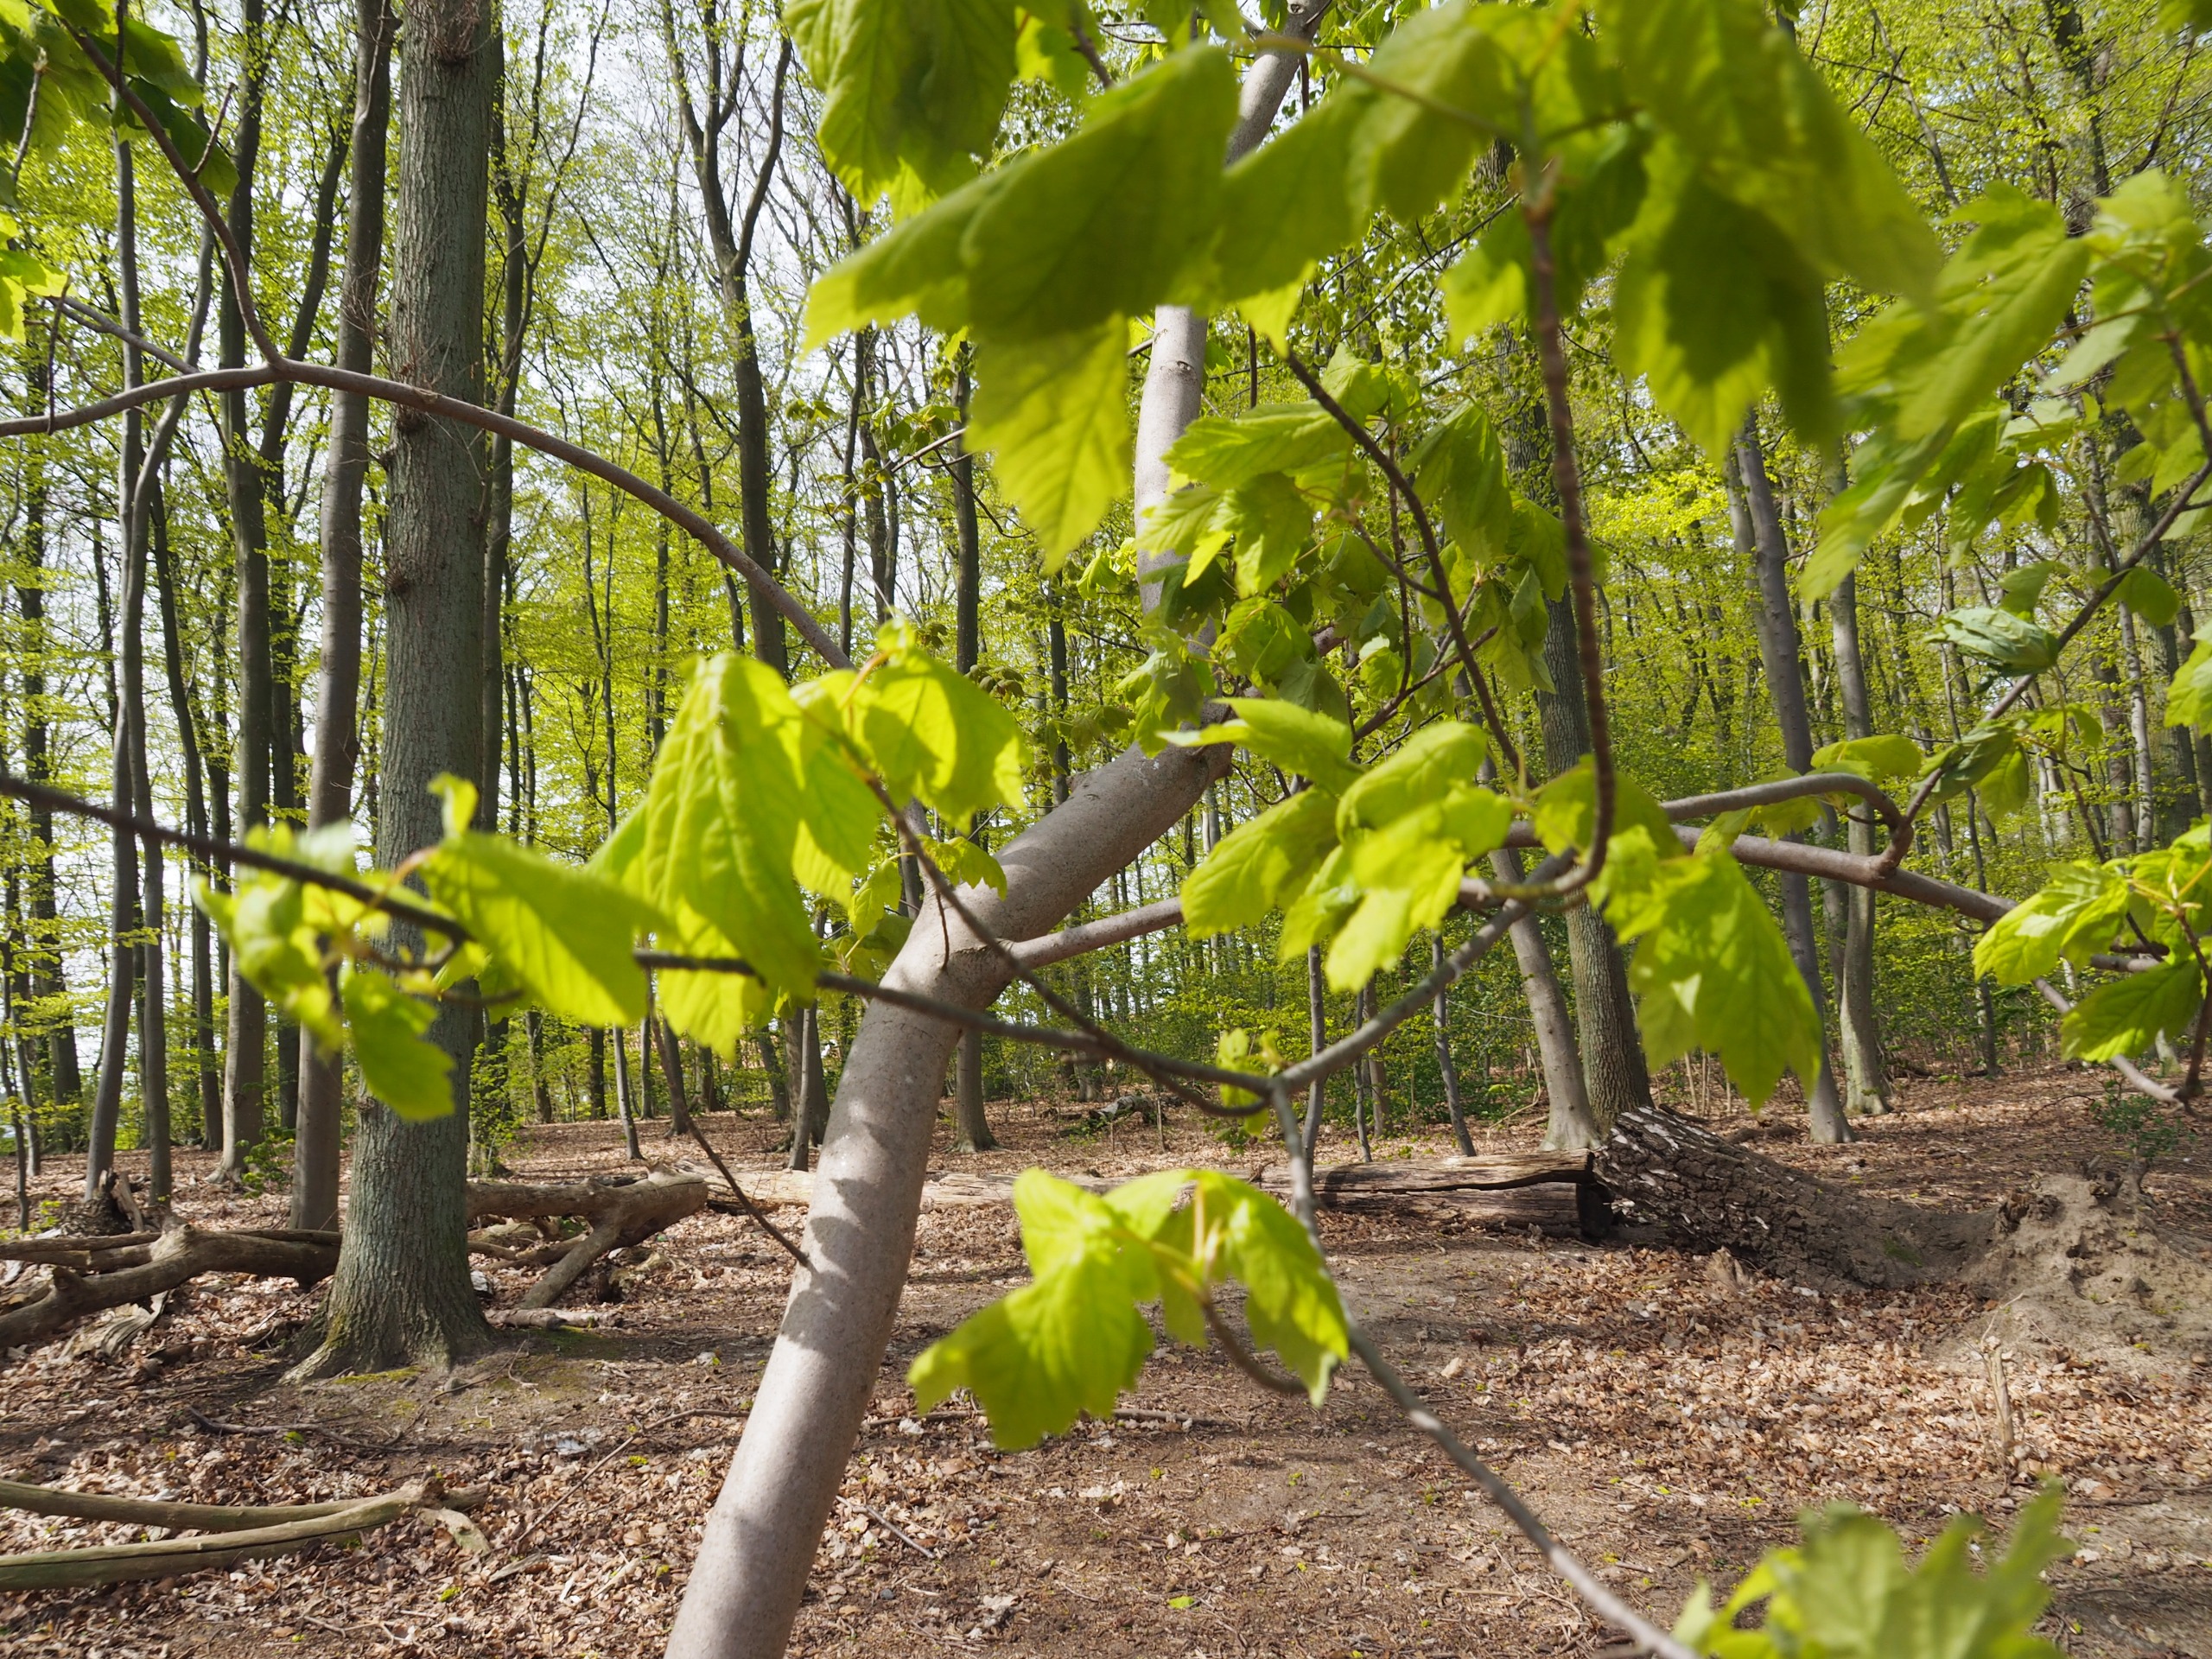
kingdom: Plantae
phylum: Tracheophyta
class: Magnoliopsida
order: Sapindales
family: Sapindaceae
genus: Acer
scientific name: Acer pseudoplatanus
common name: Ahorn
